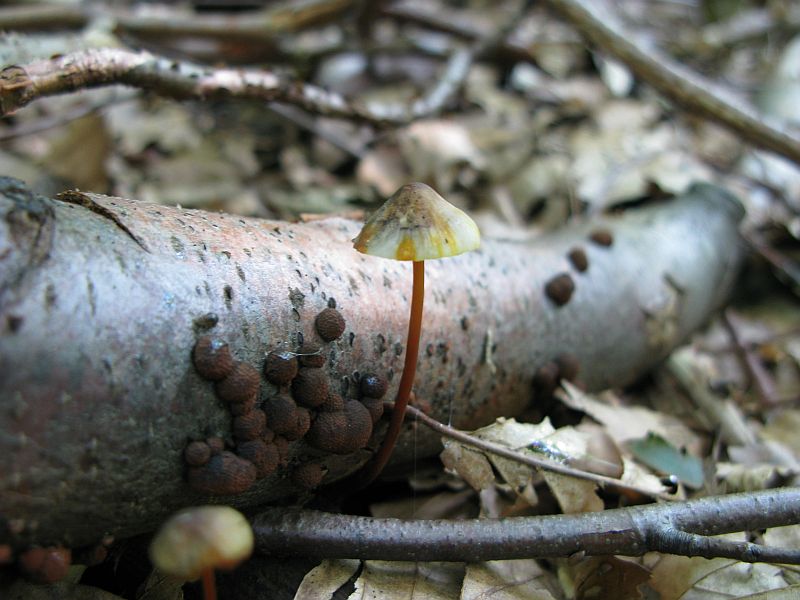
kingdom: Fungi
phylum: Basidiomycota
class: Agaricomycetes
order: Agaricales
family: Mycenaceae
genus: Mycena
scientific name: Mycena crocata
